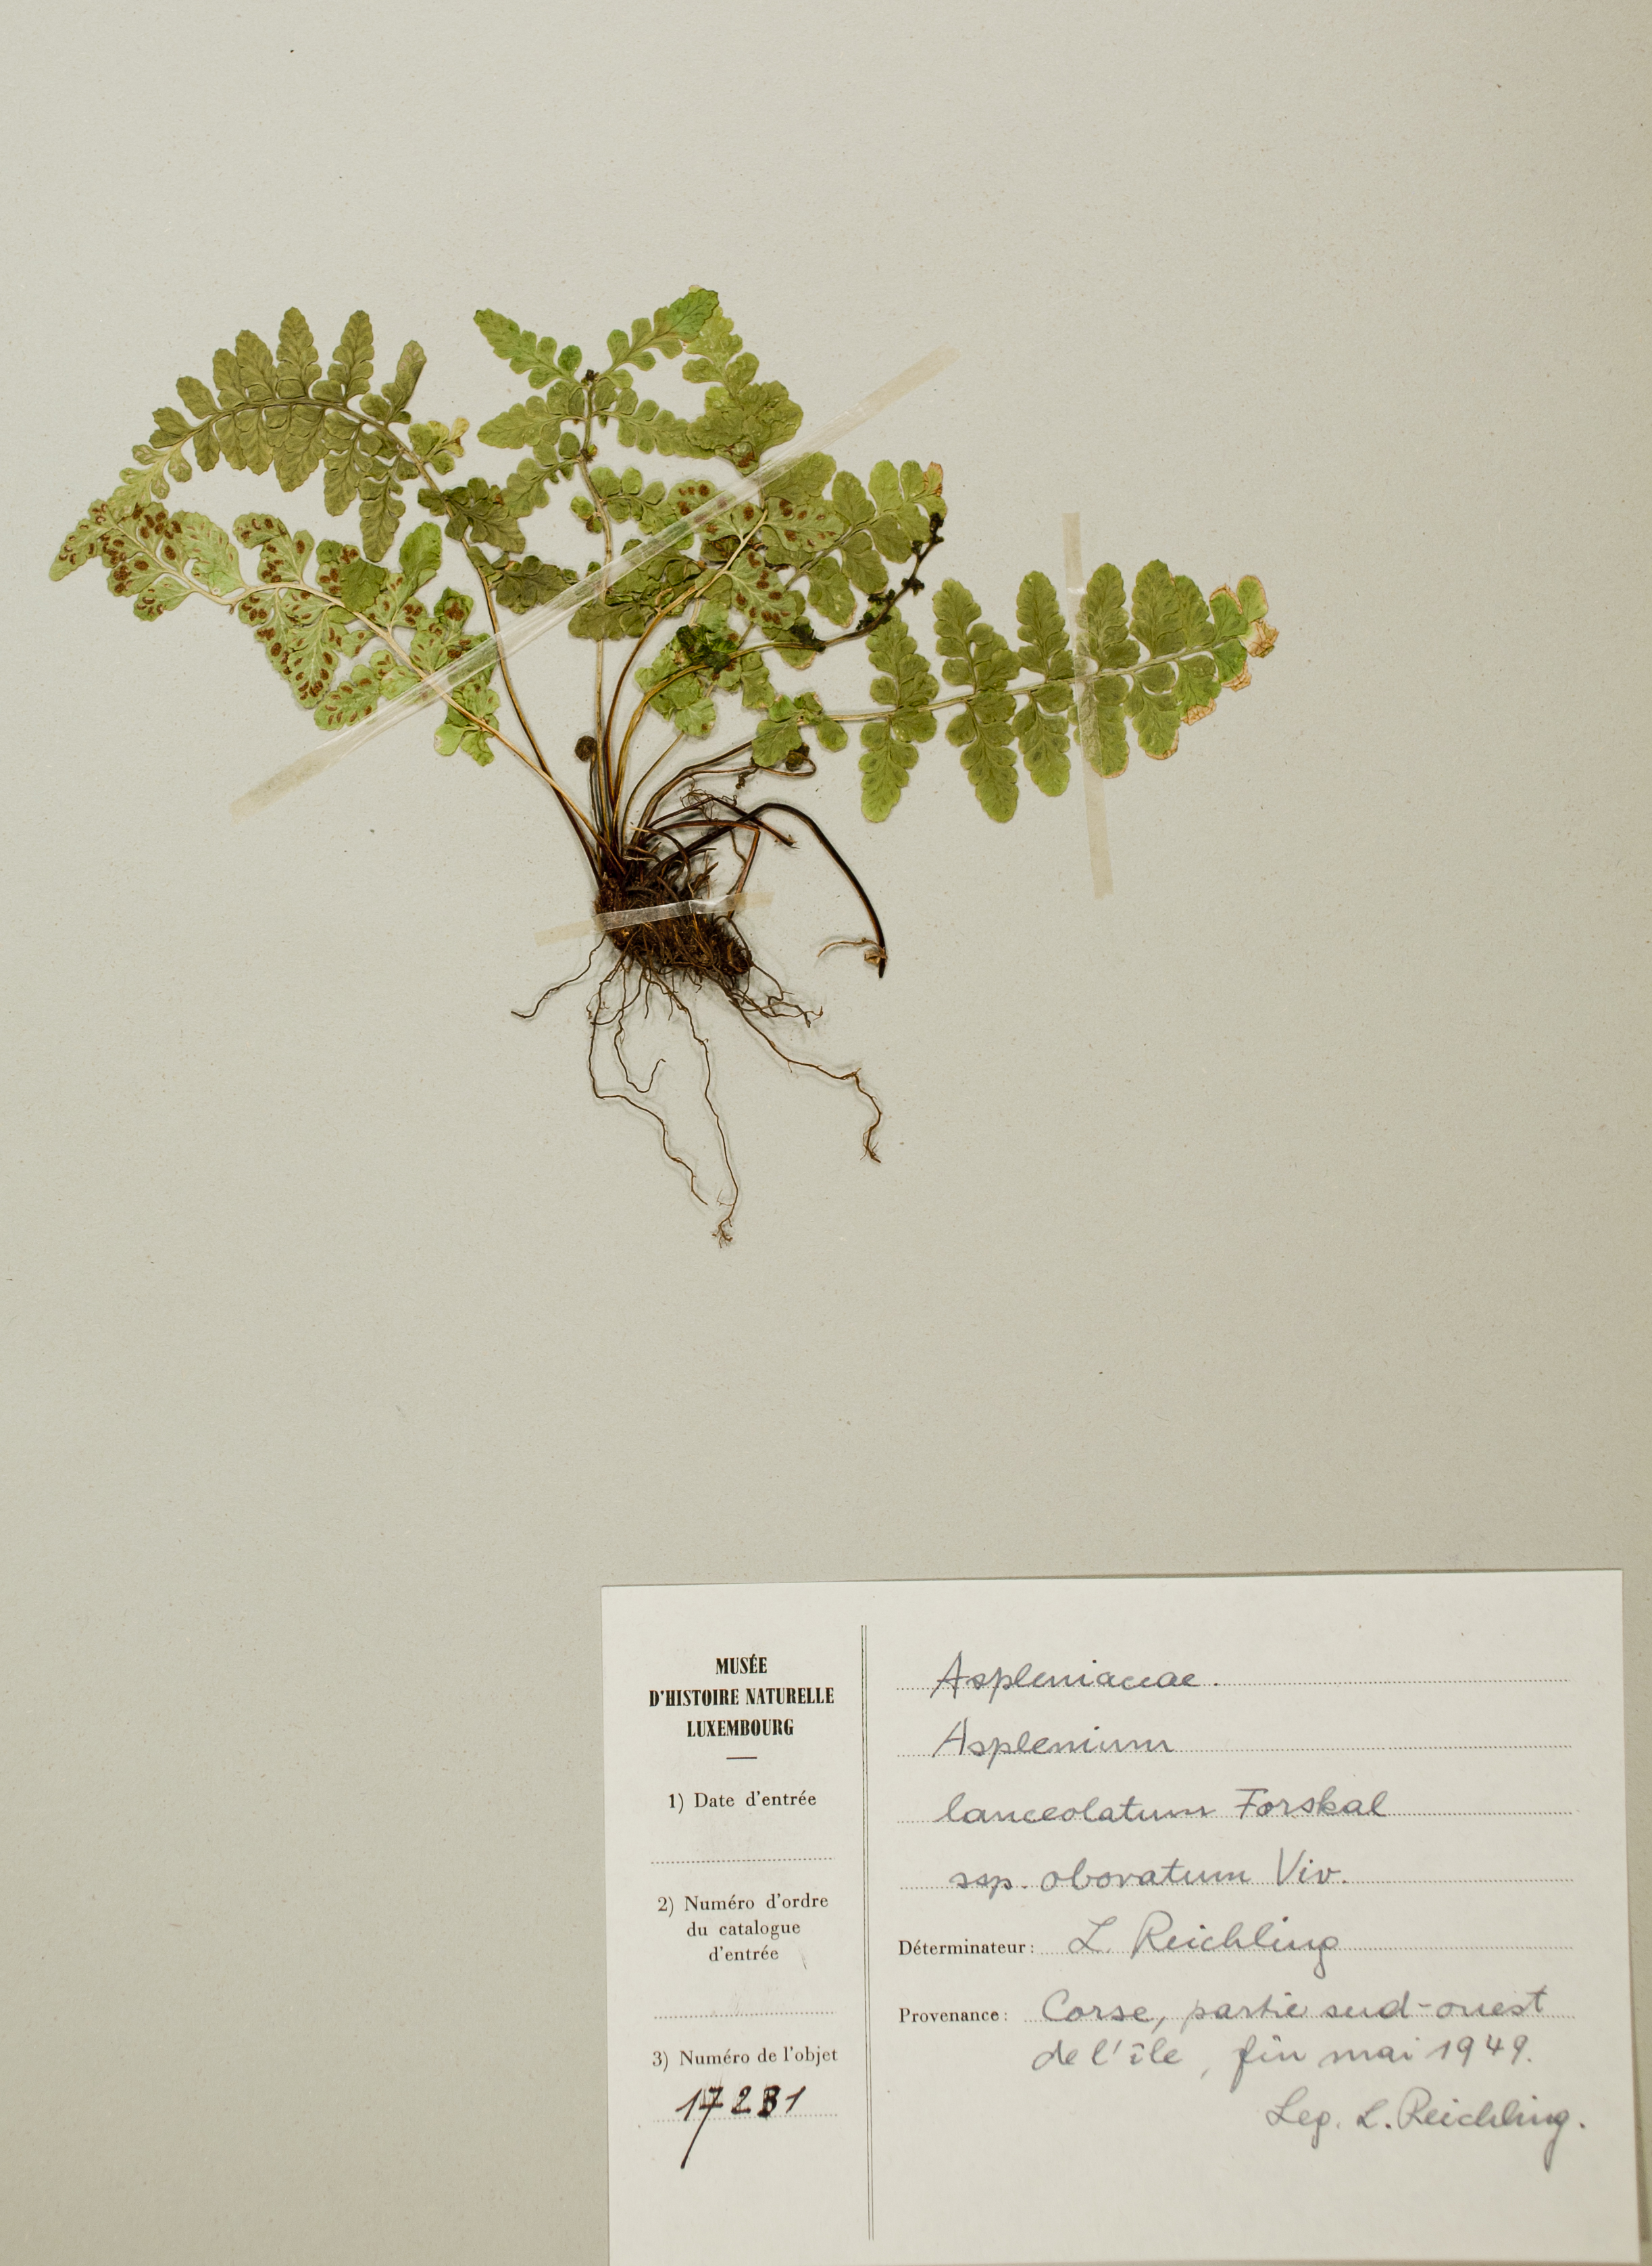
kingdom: Plantae
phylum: Tracheophyta
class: Polypodiopsida
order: Polypodiales
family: Aspleniaceae
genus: Asplenium
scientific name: Asplenium obovatum
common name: Lanceolate spleenwort
